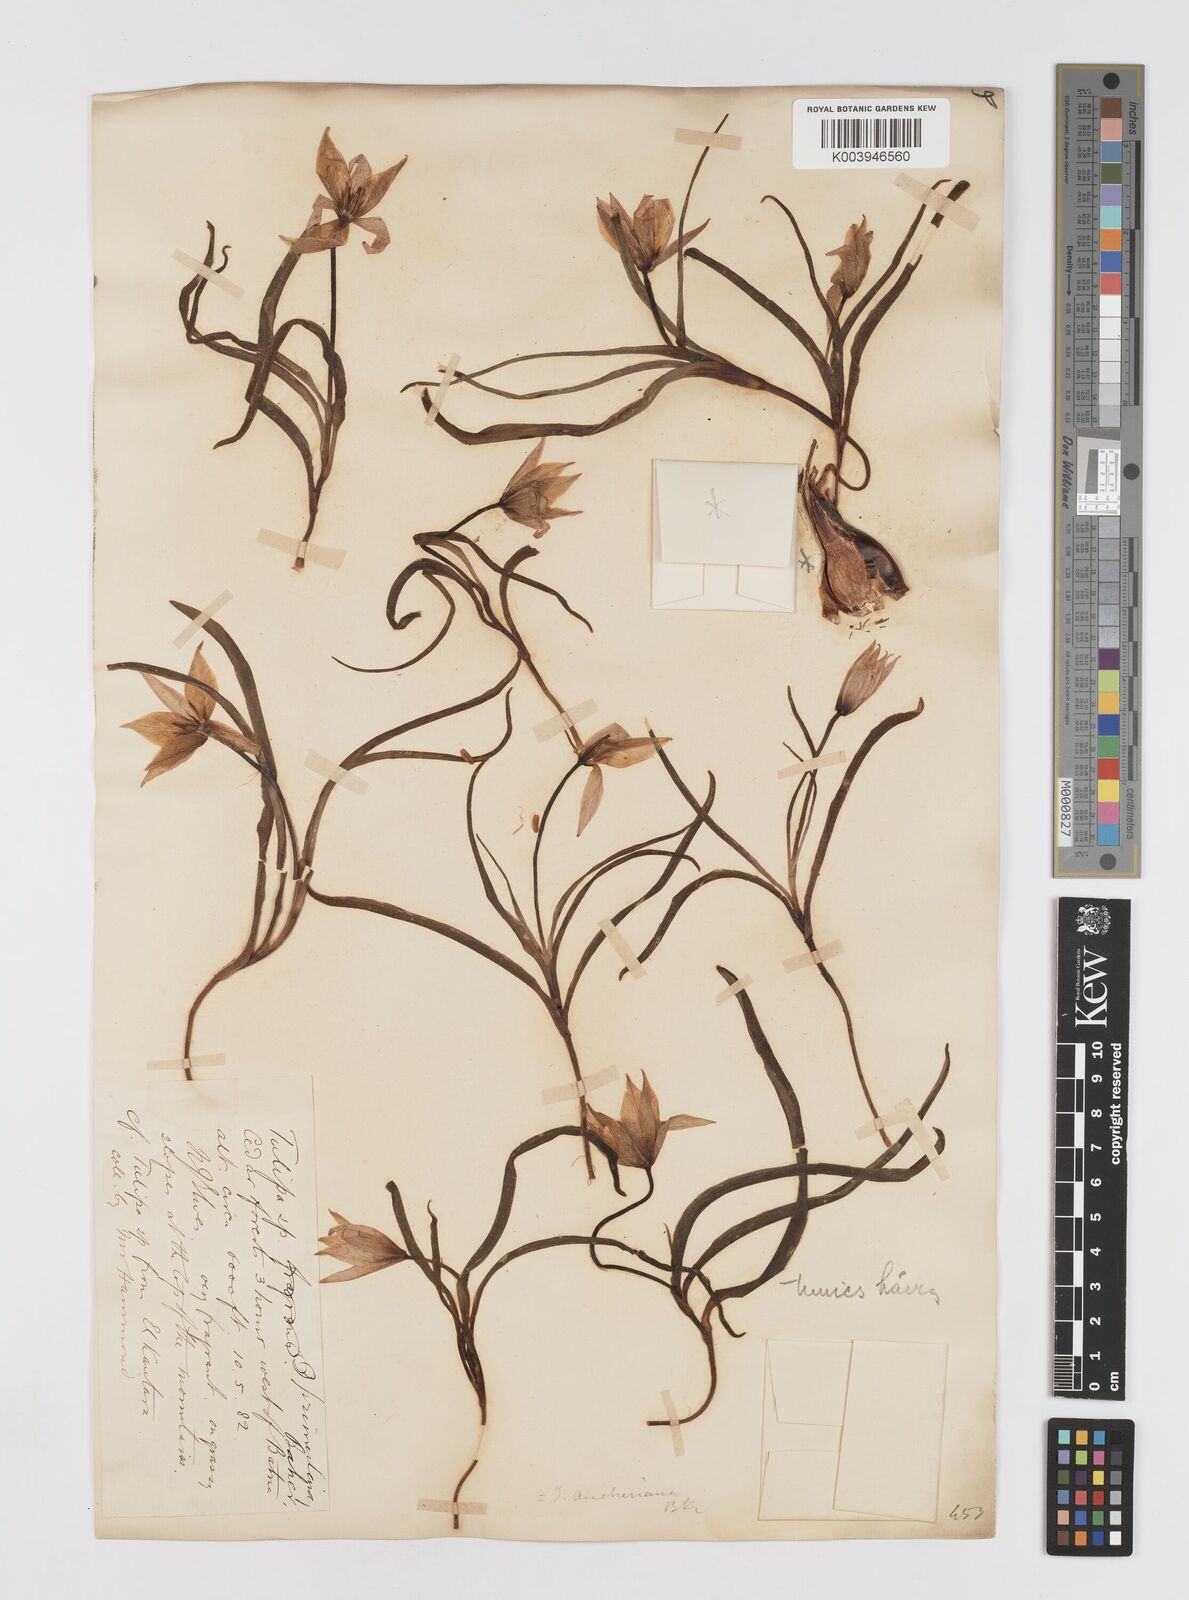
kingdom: Plantae
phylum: Tracheophyta
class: Liliopsida
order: Liliales
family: Liliaceae
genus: Tulipa
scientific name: Tulipa sylvestris
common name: Wild tulip
